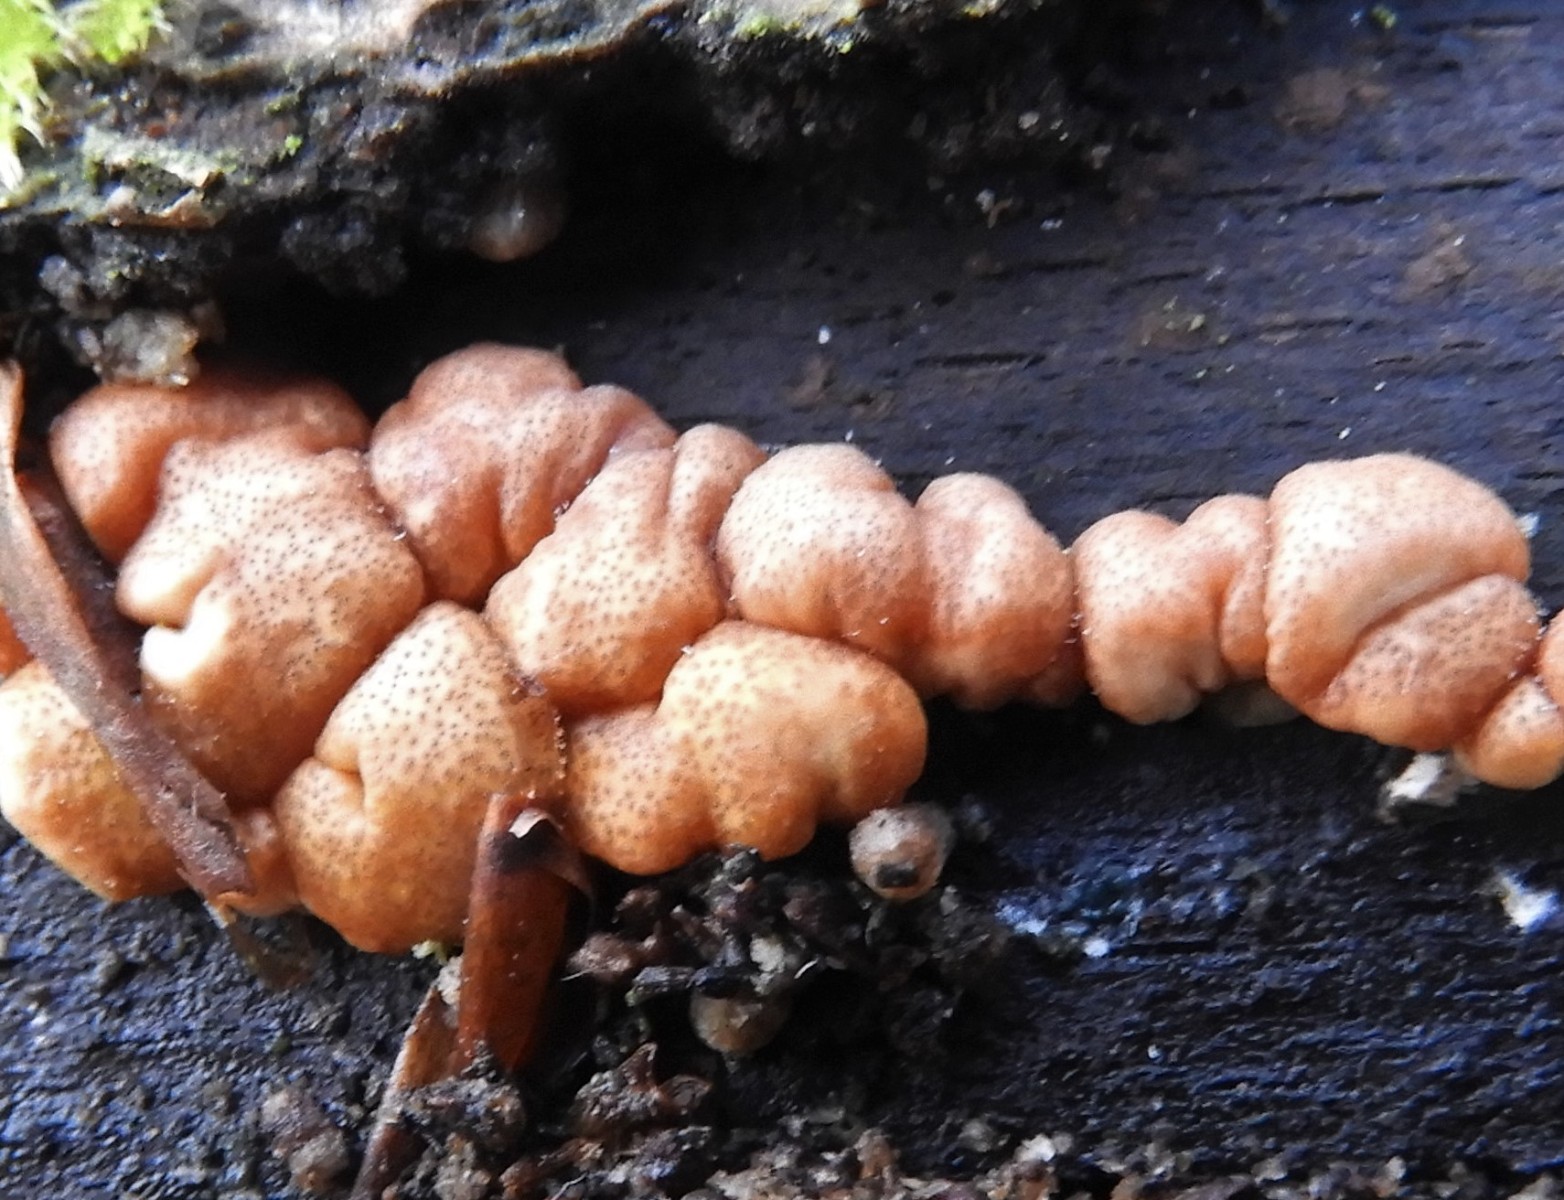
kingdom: Fungi
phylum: Ascomycota
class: Sordariomycetes
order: Hypocreales
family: Hypocreaceae
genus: Trichoderma
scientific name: Trichoderma europaeum
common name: rosabrun kødkerne
